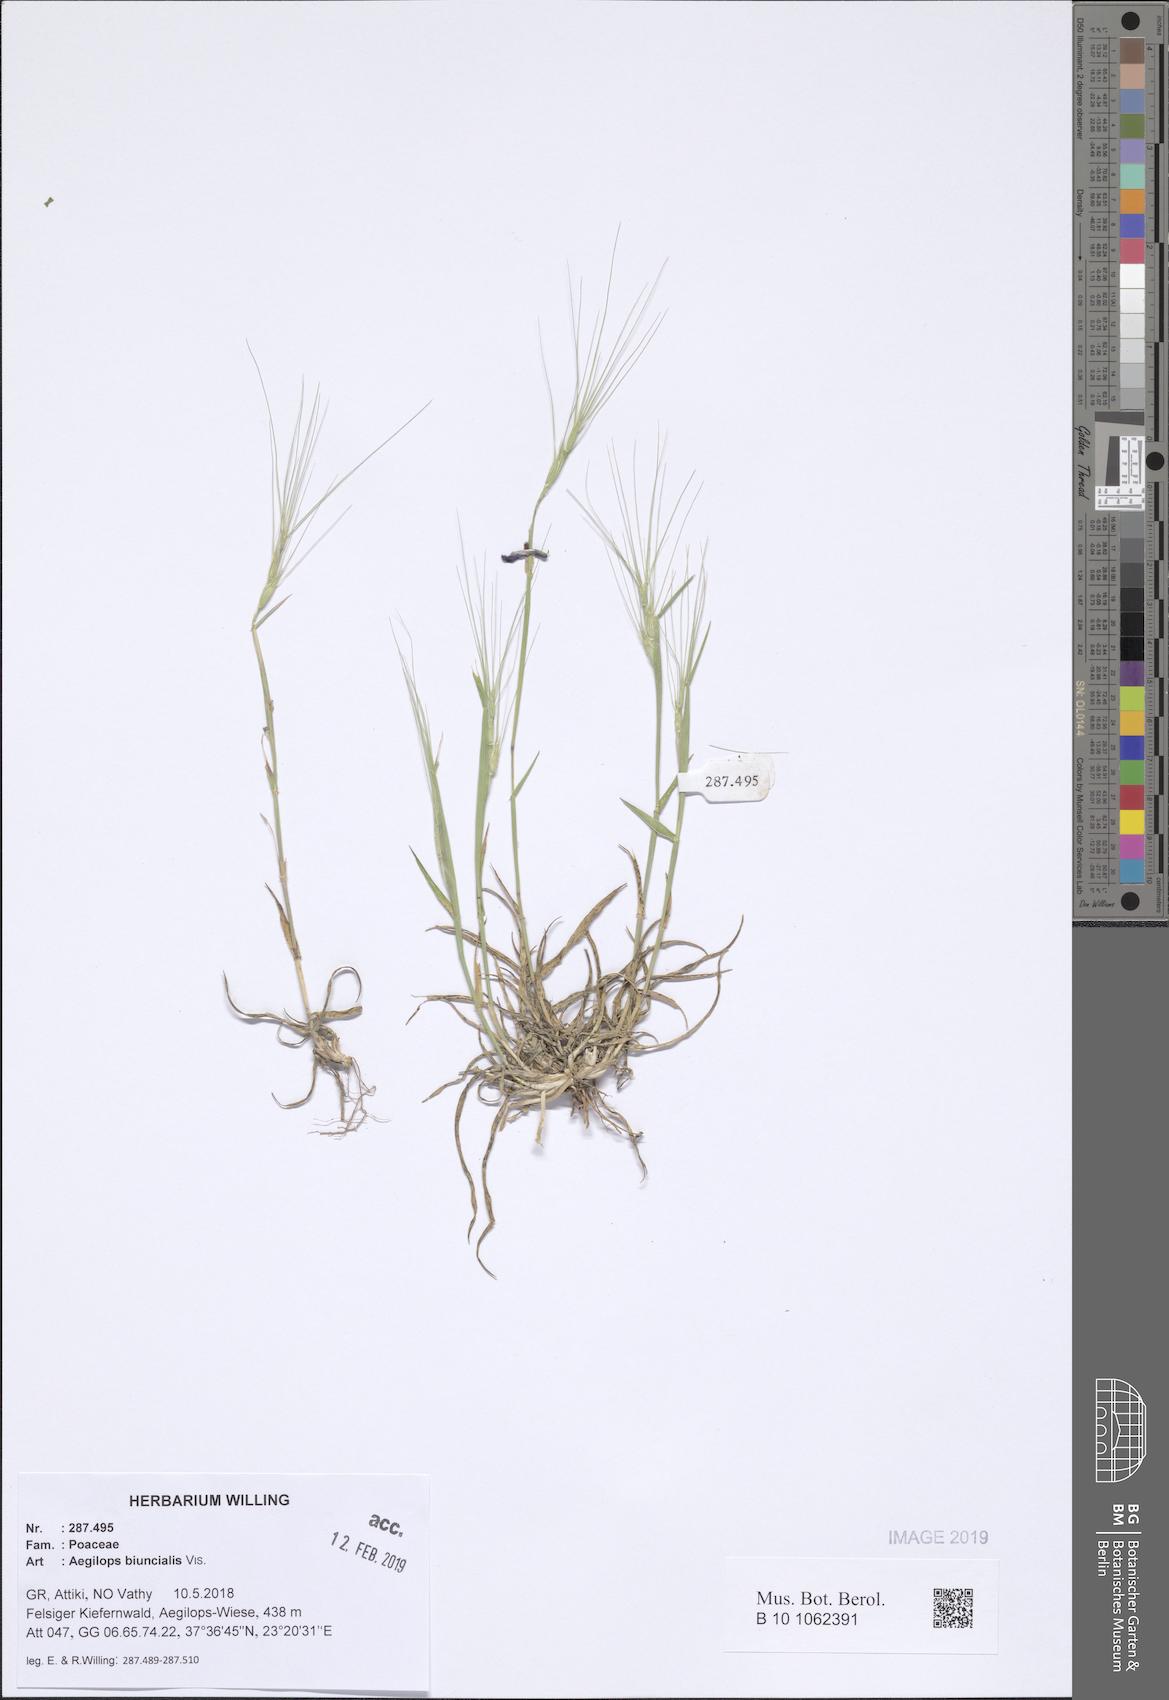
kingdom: Plantae
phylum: Tracheophyta
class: Liliopsida
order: Poales
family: Poaceae
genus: Aegilops
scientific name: Aegilops biuncialis
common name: Mediterranean aegilops
